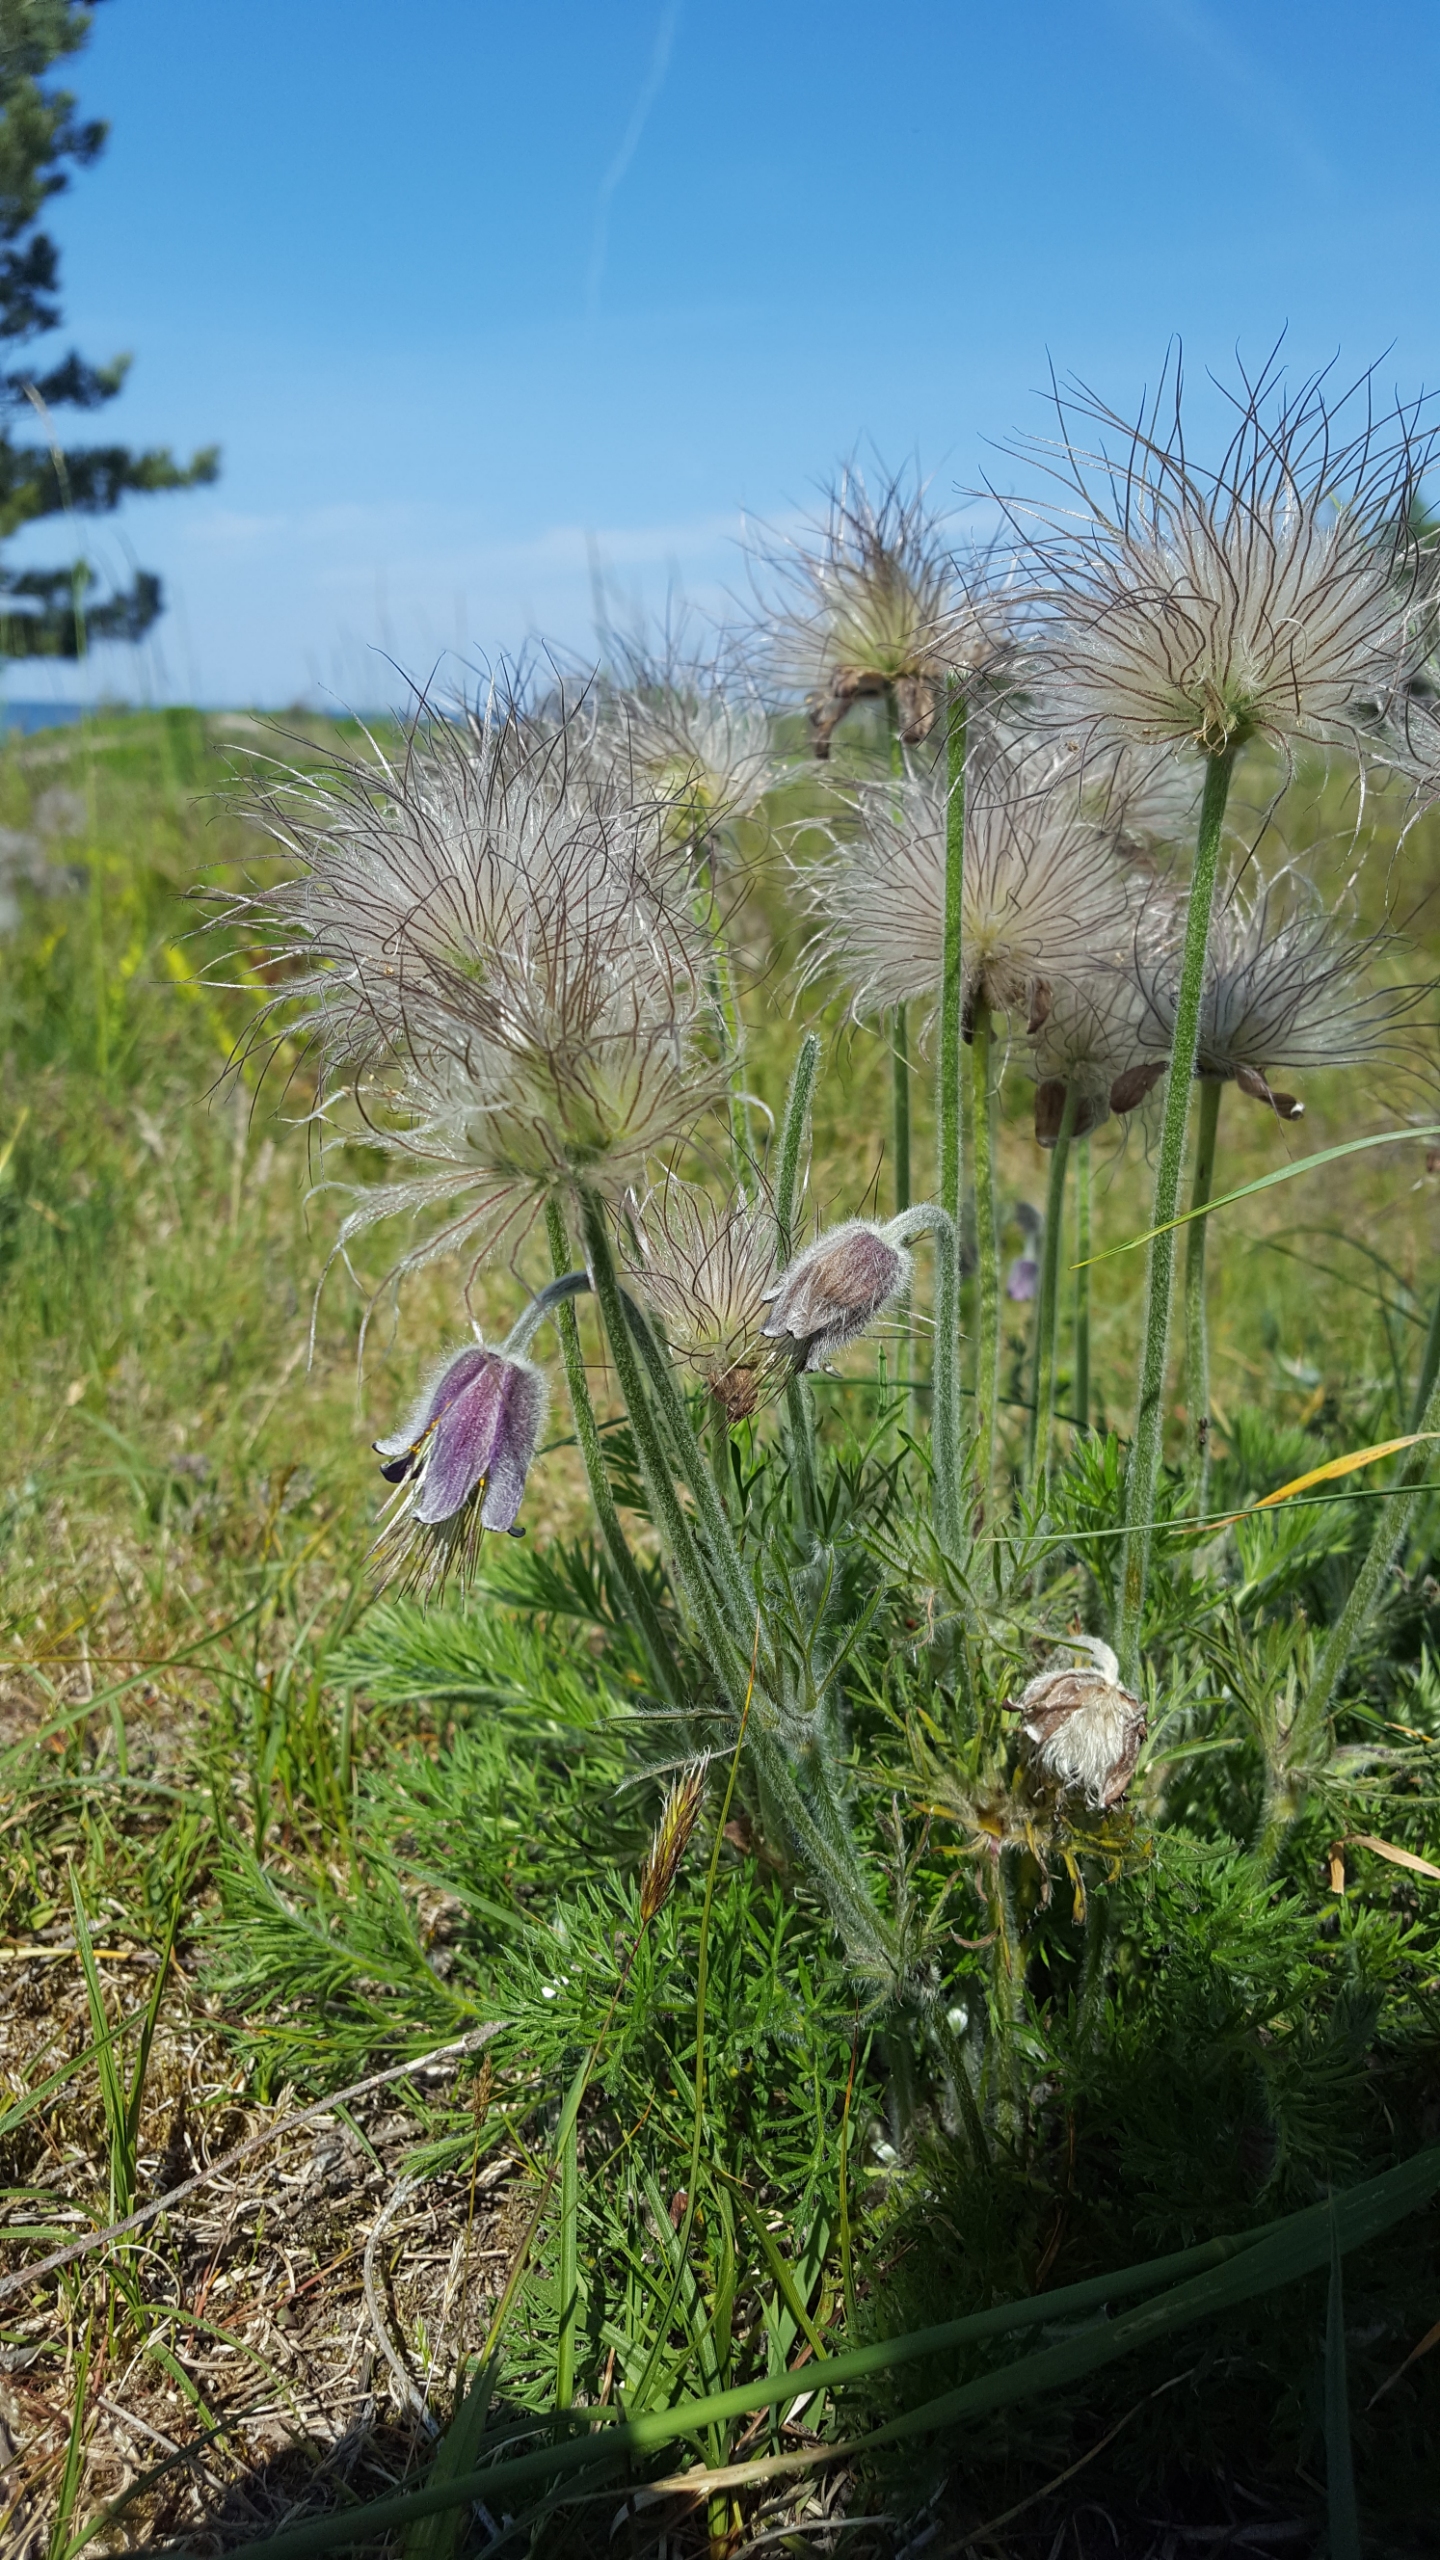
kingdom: Plantae
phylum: Tracheophyta
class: Magnoliopsida
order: Ranunculales
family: Ranunculaceae
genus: Pulsatilla
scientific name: Pulsatilla pratensis
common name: Nikkende kobjælde
